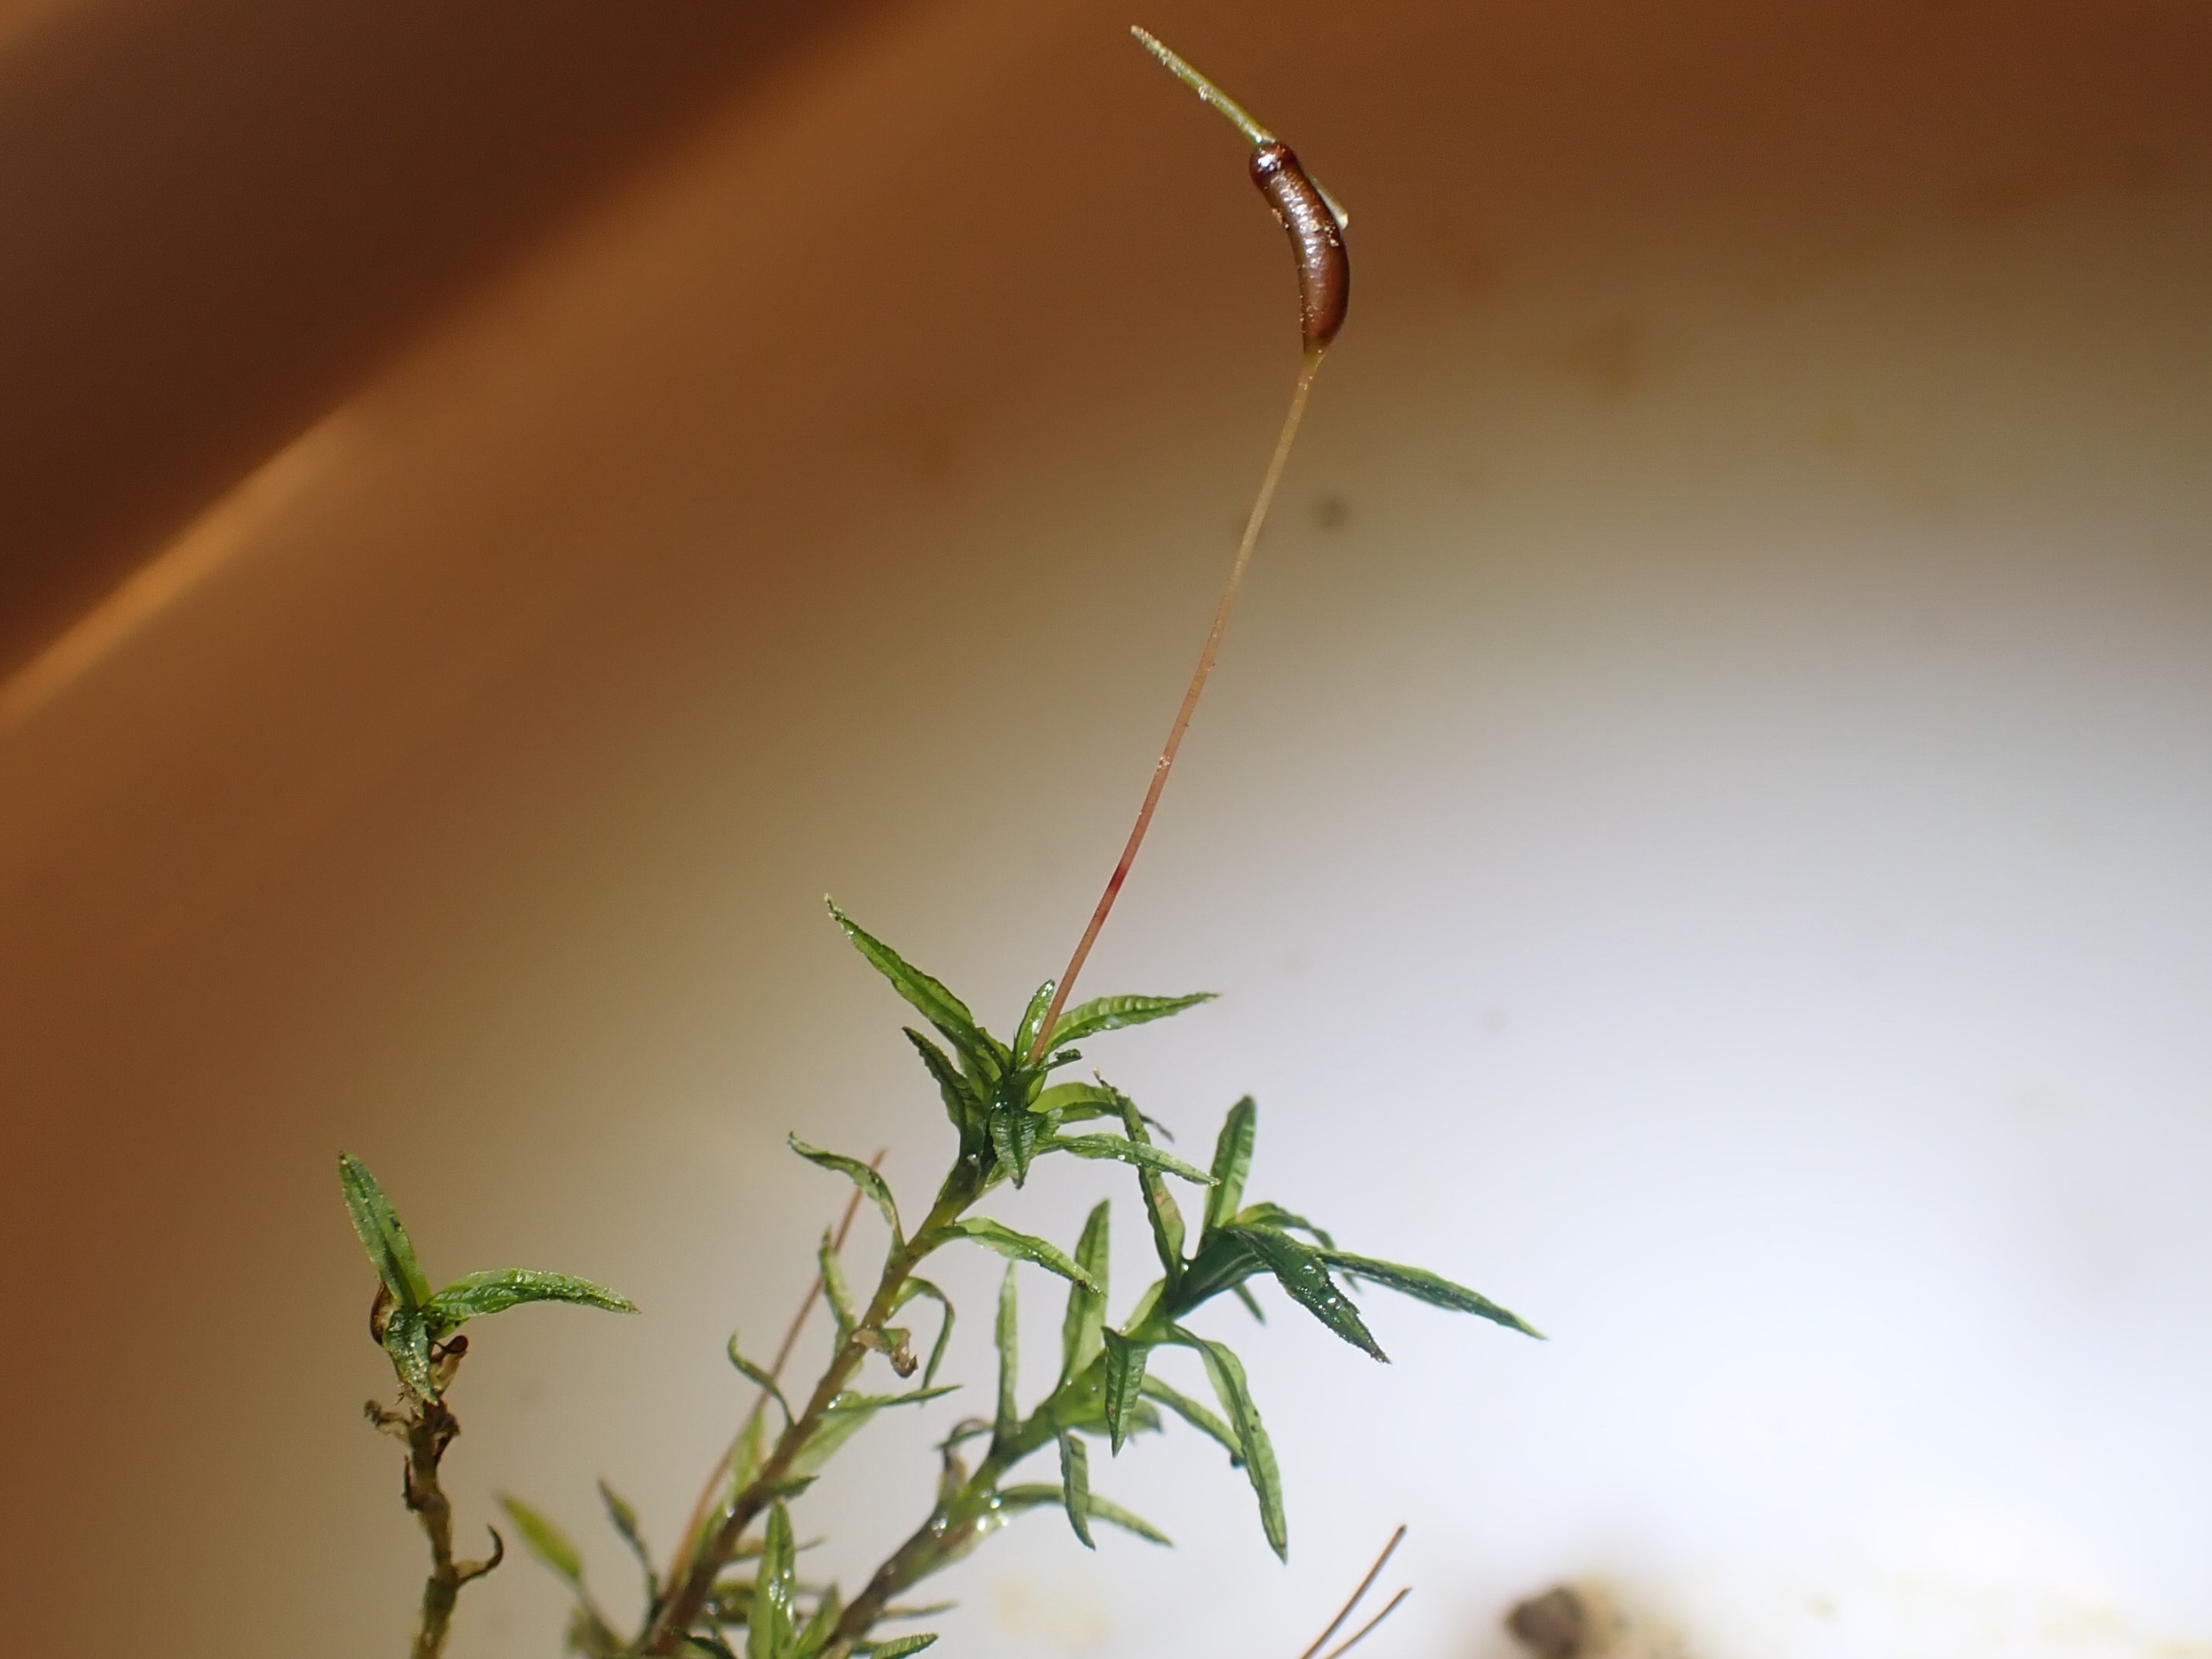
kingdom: Plantae
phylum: Bryophyta
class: Polytrichopsida
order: Polytrichales
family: Polytrichaceae
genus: Atrichum
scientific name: Atrichum undulatum
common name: Bølget katrinemos
